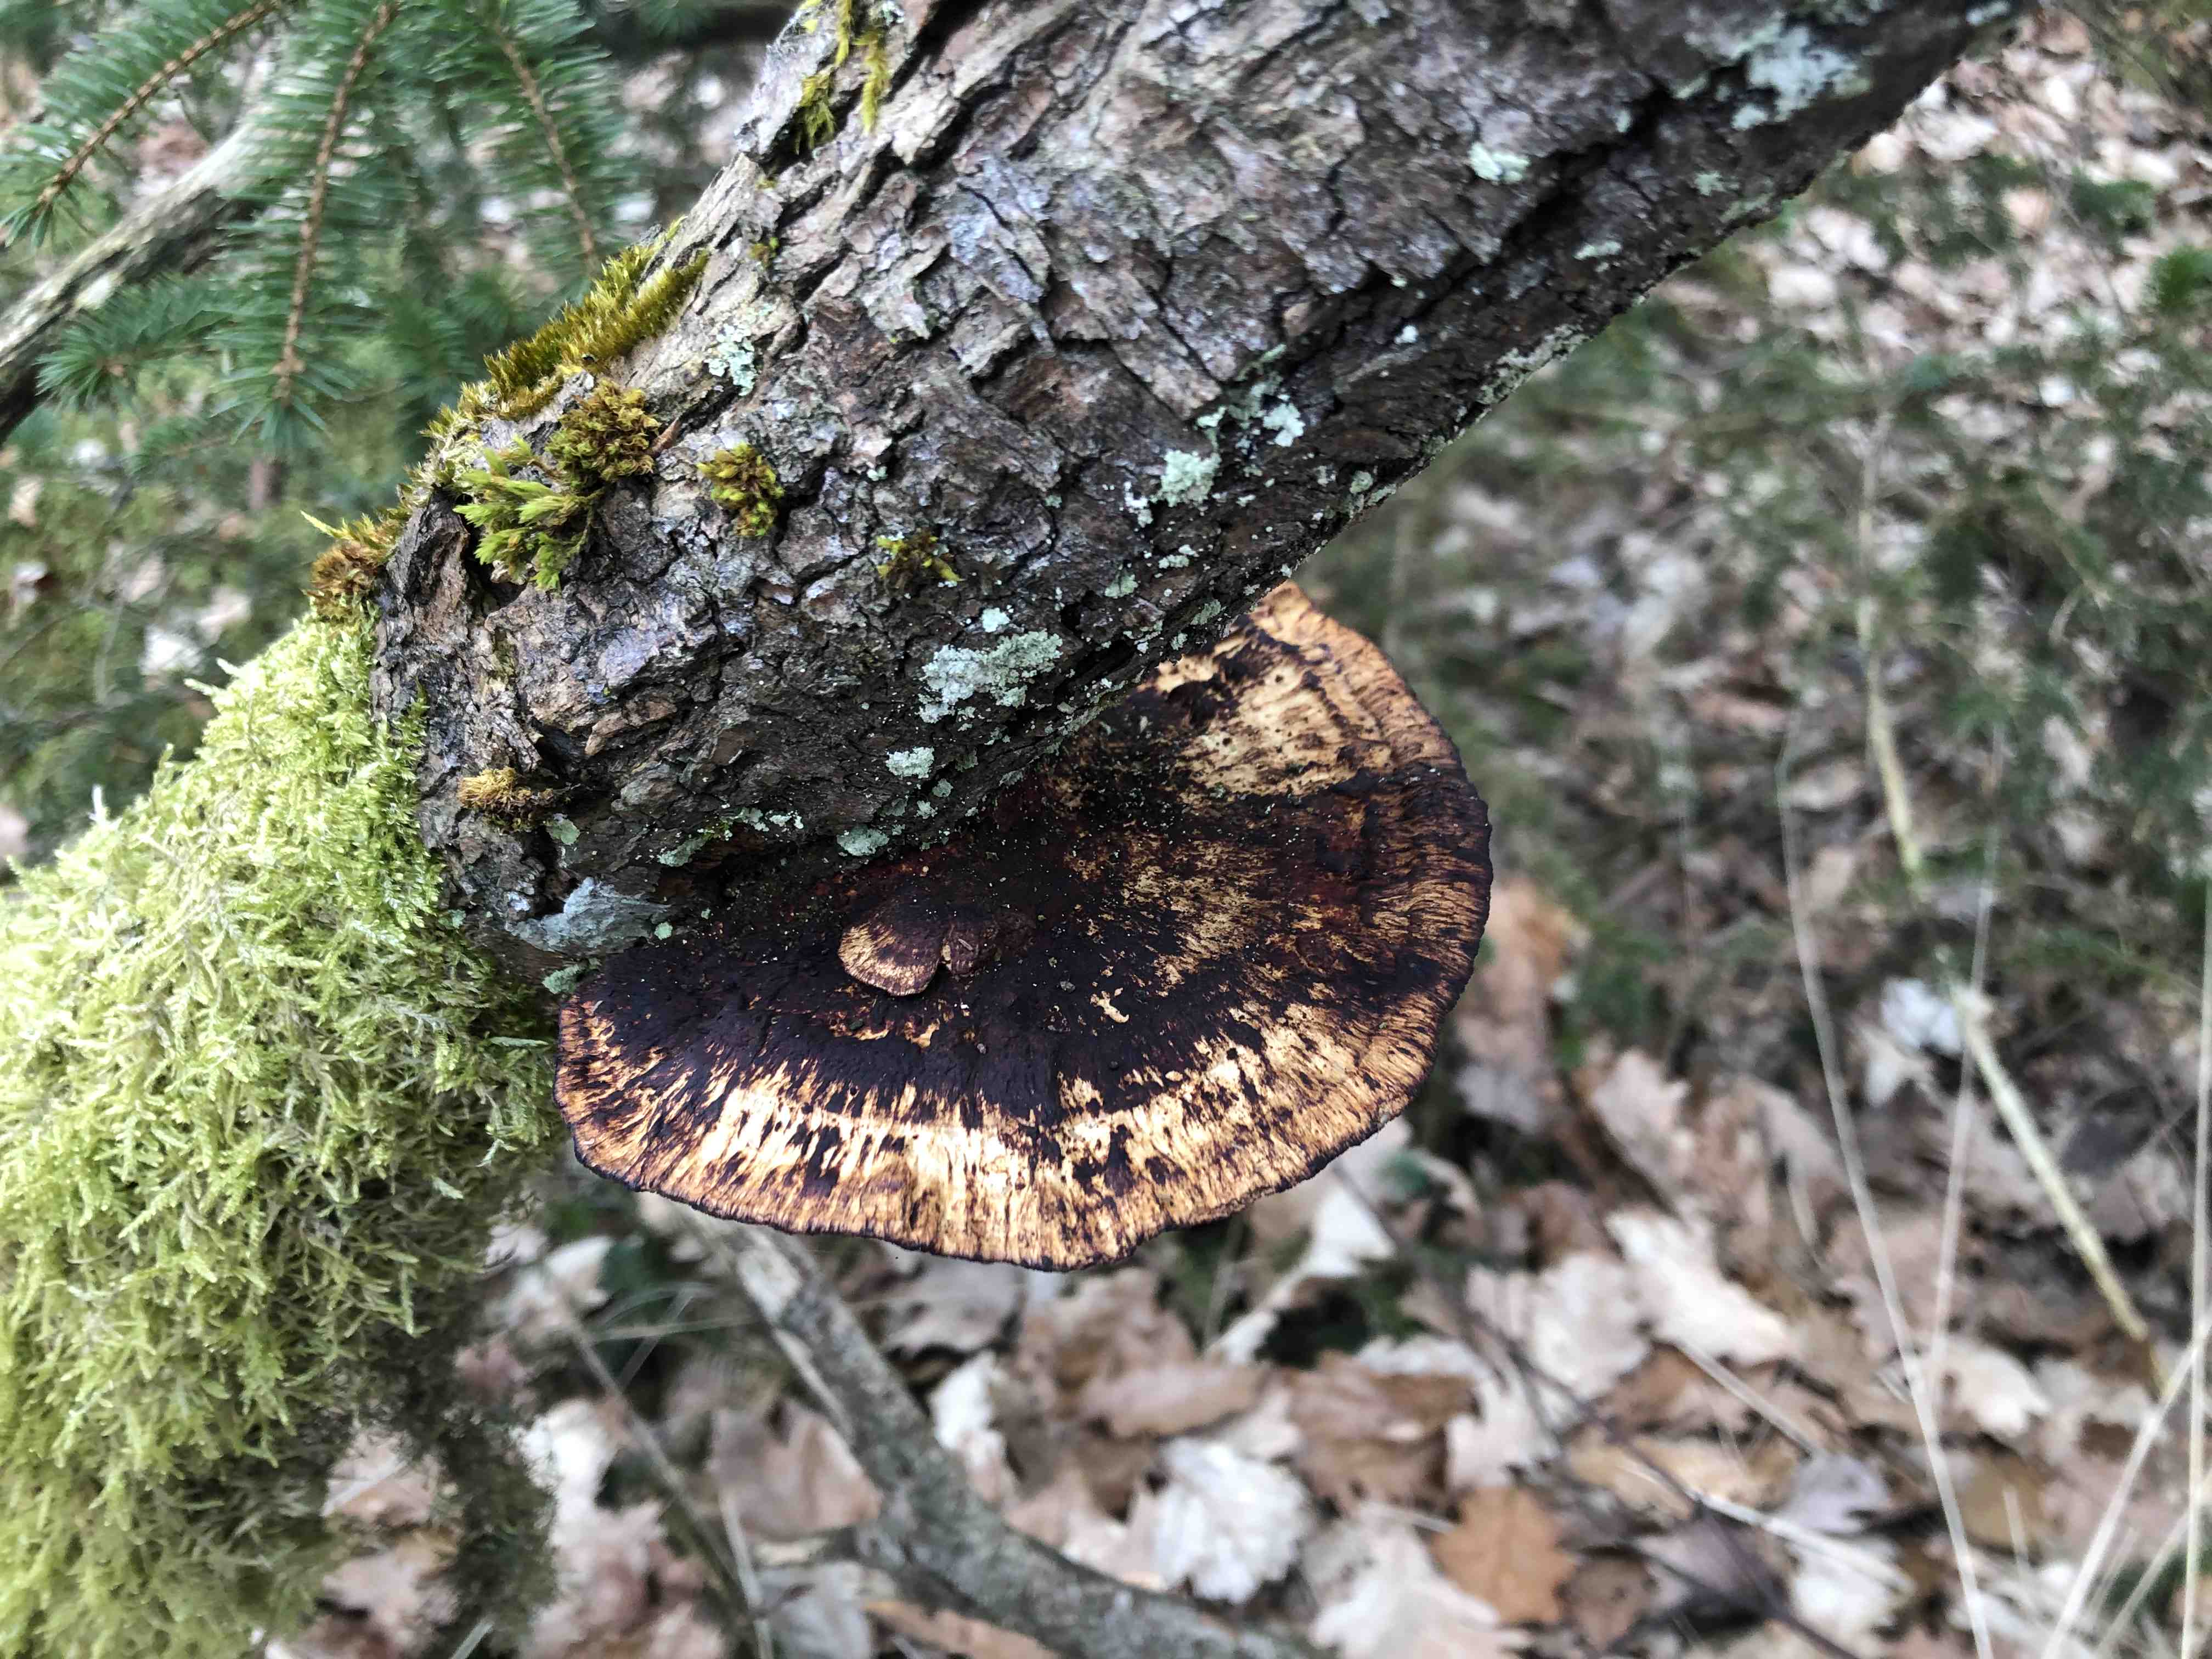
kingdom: Fungi
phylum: Basidiomycota
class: Agaricomycetes
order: Polyporales
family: Polyporaceae
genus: Daedaleopsis
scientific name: Daedaleopsis confragosa
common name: rødmende læderporesvamp
